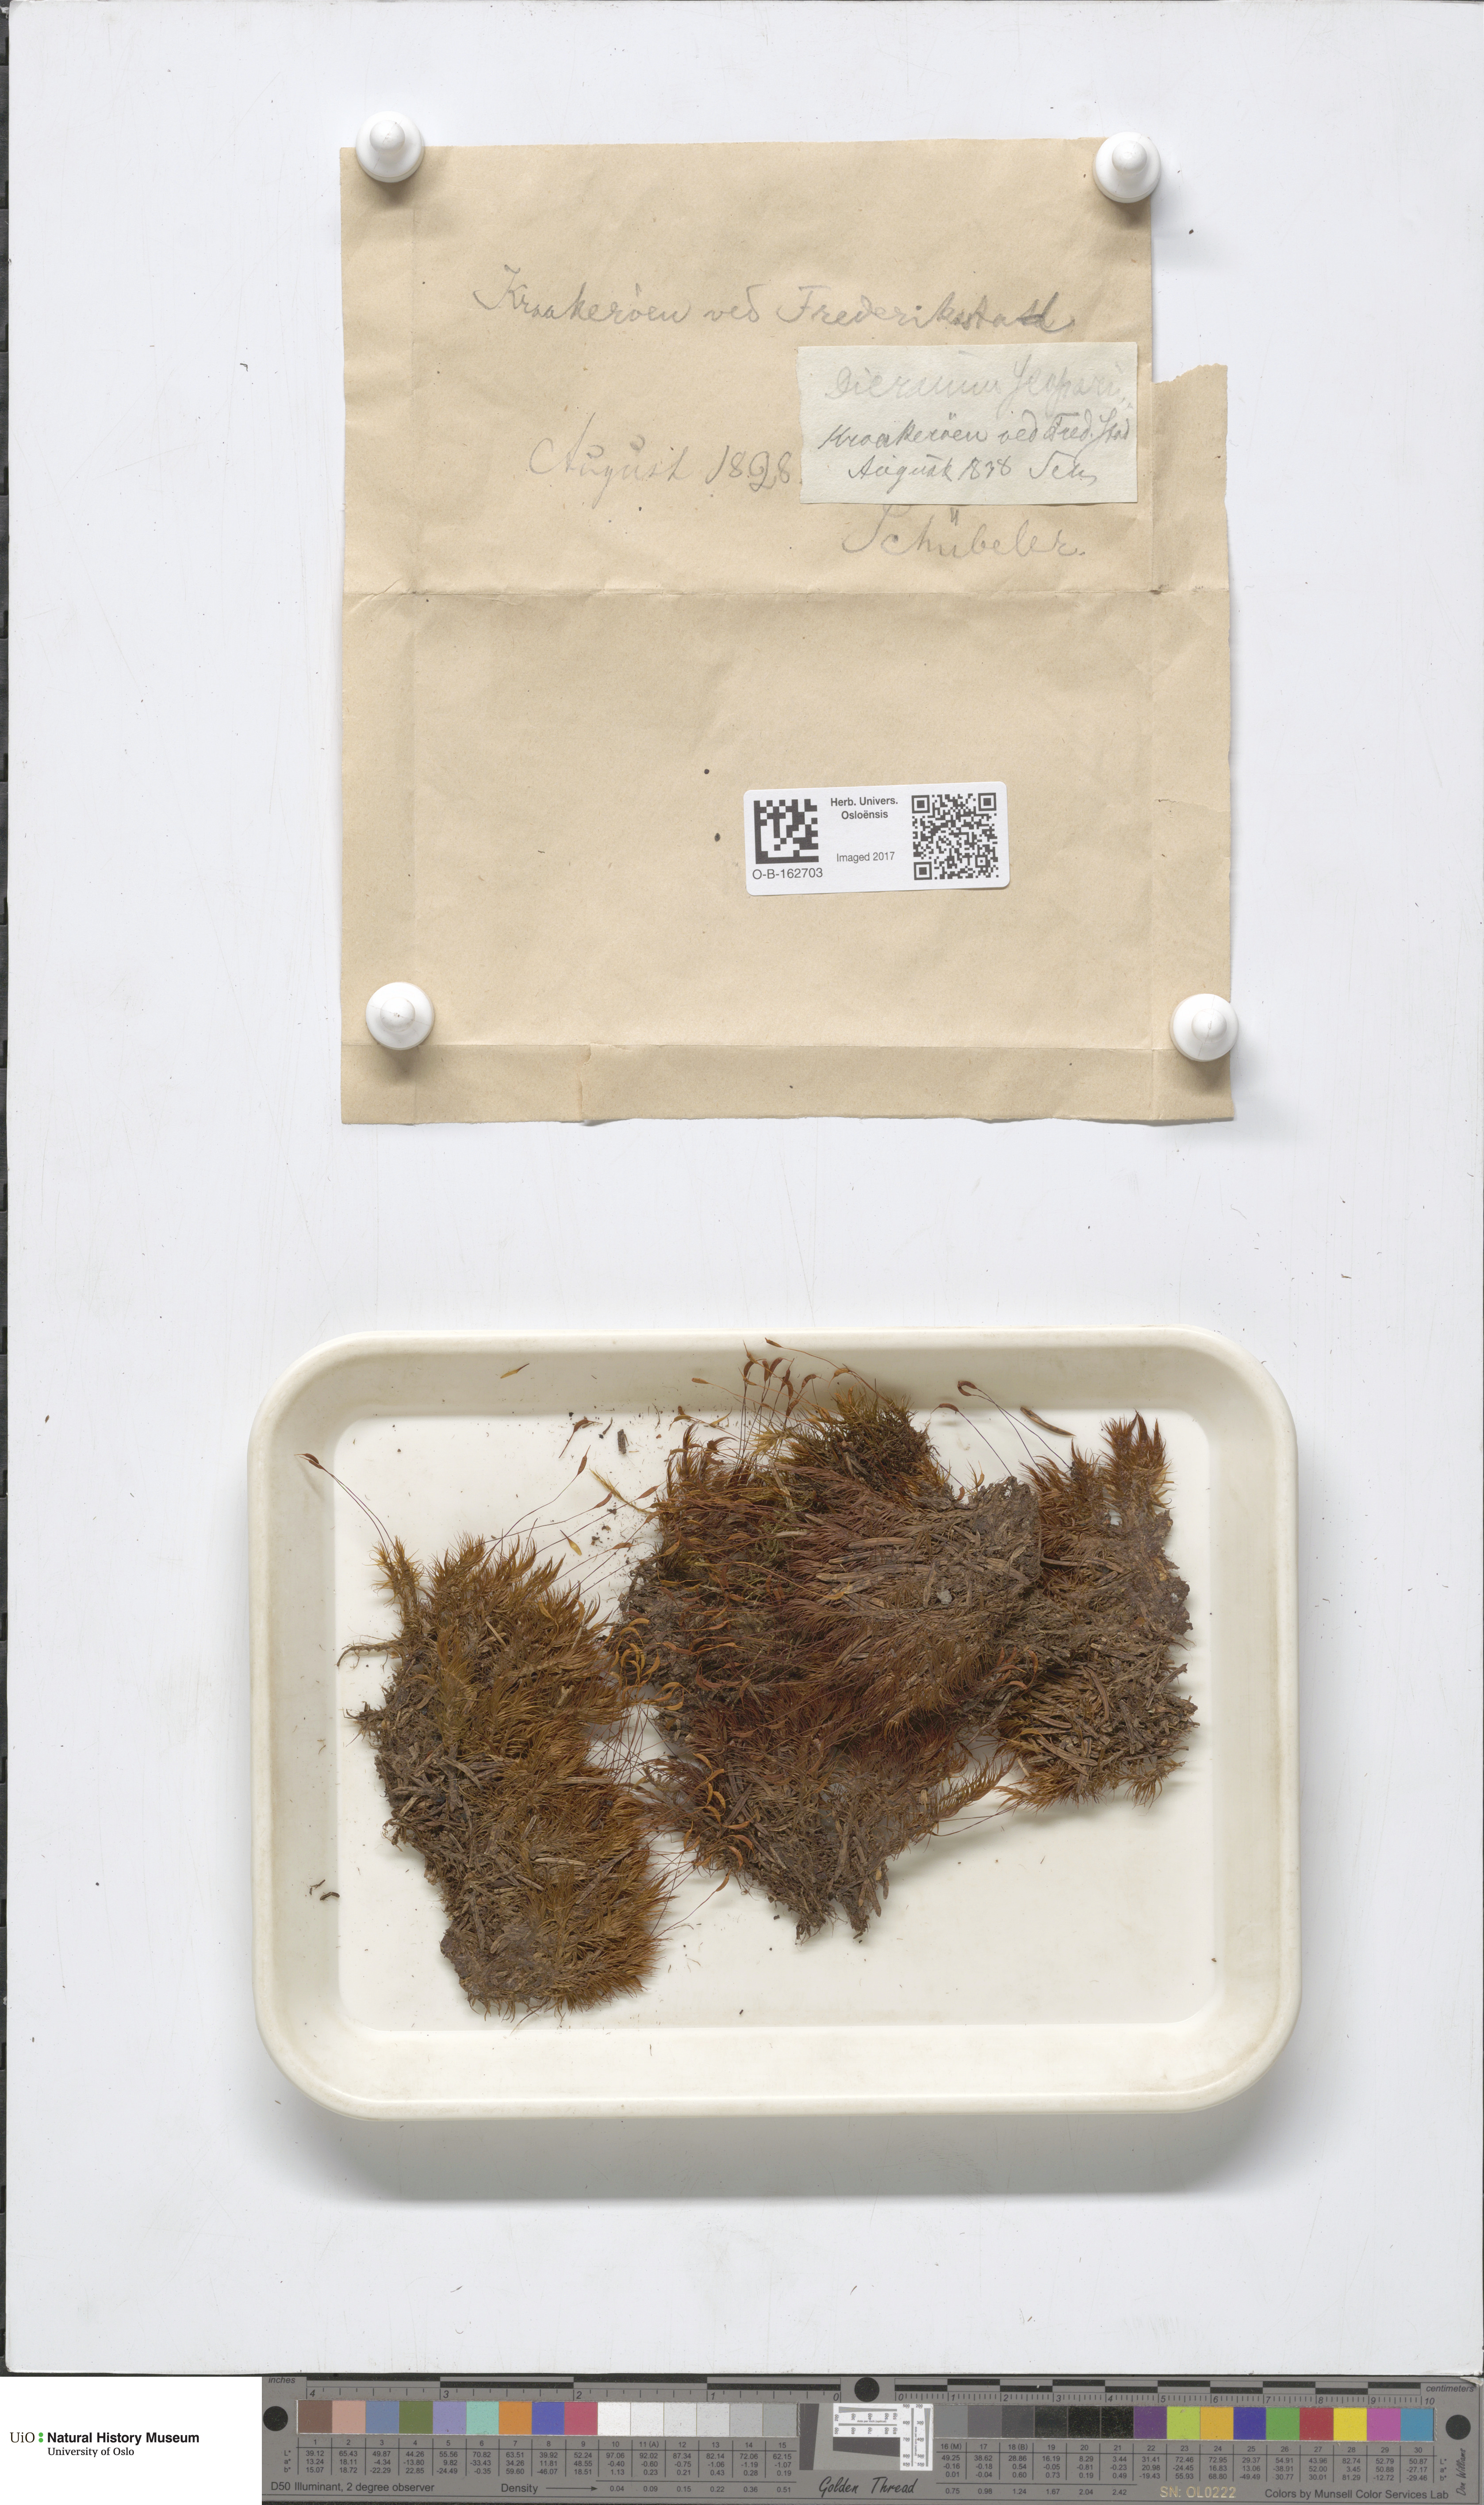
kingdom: Plantae
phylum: Bryophyta
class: Bryopsida
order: Dicranales
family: Dicranaceae
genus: Dicranum
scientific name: Dicranum scoparium
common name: Broom fork-moss
